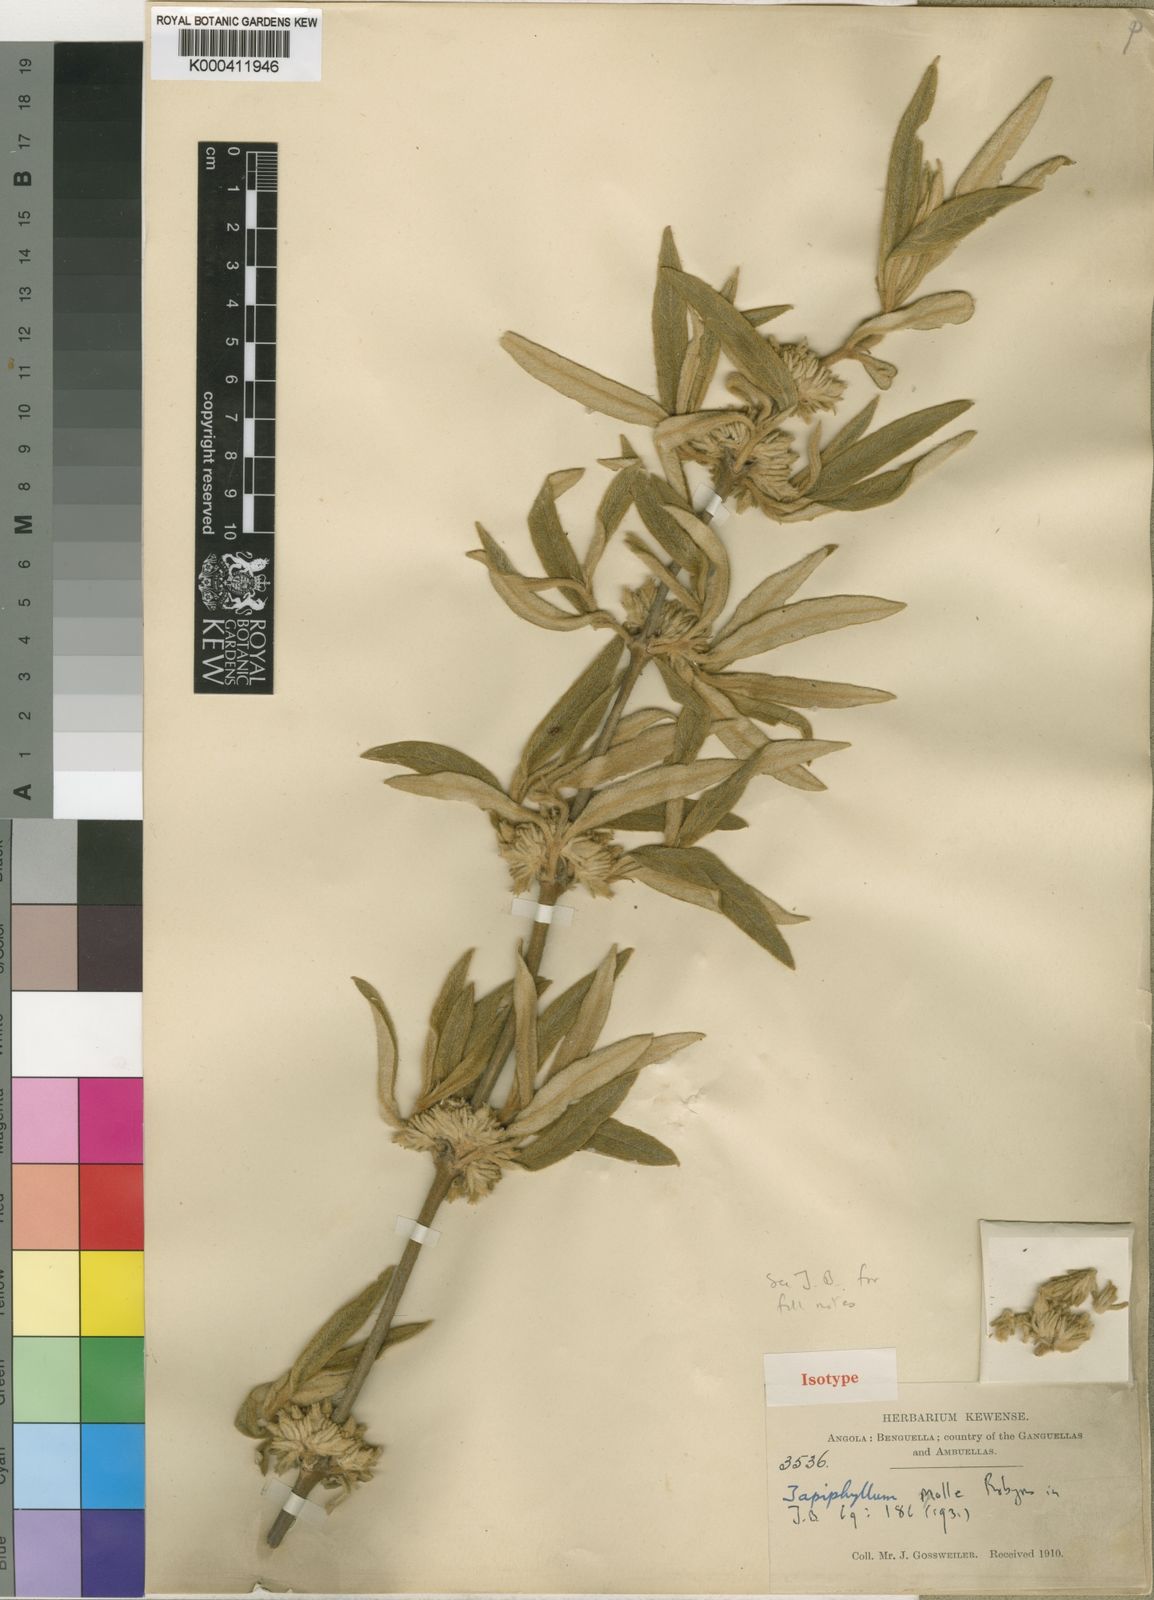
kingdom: Plantae
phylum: Tracheophyta
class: Magnoliopsida
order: Gentianales
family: Rubiaceae
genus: Vangueria
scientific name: Vangueria mollis
